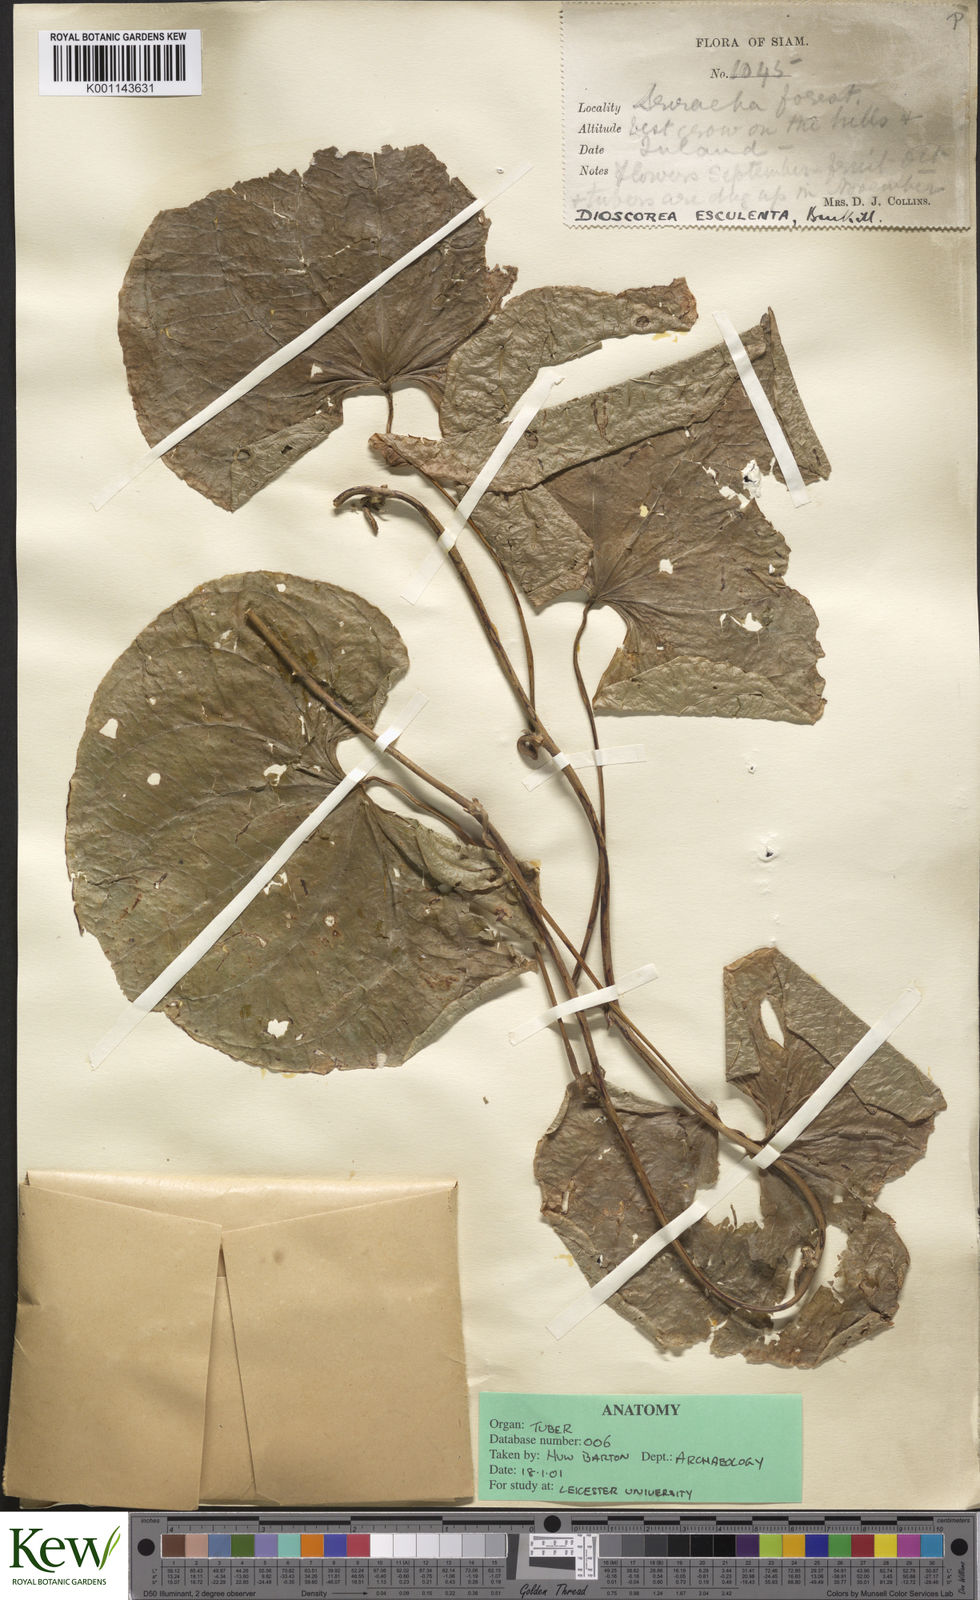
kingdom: Plantae
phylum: Tracheophyta
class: Liliopsida
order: Dioscoreales
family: Dioscoreaceae
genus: Dioscorea
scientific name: Dioscorea esculenta
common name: Chinese yam
